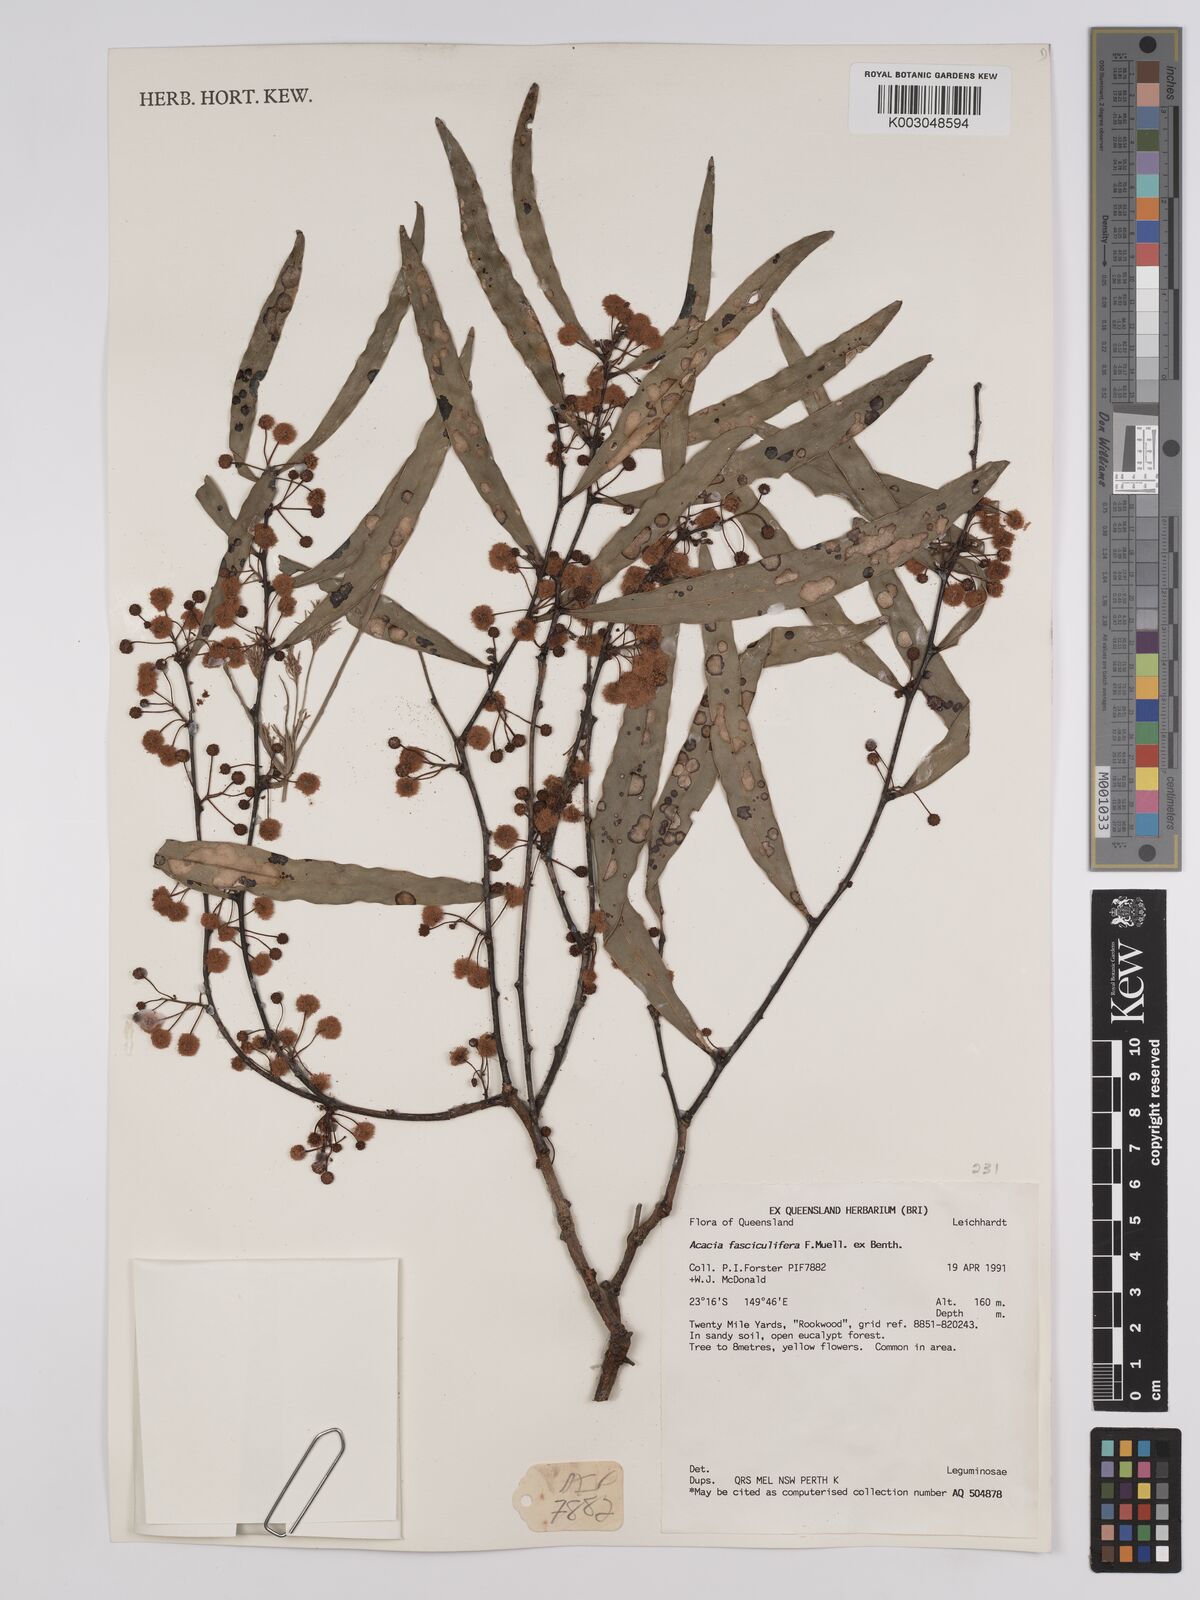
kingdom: Plantae
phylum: Tracheophyta
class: Magnoliopsida
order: Fabales
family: Fabaceae
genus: Acacia
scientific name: Acacia fasciculifera
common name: Scalybark
